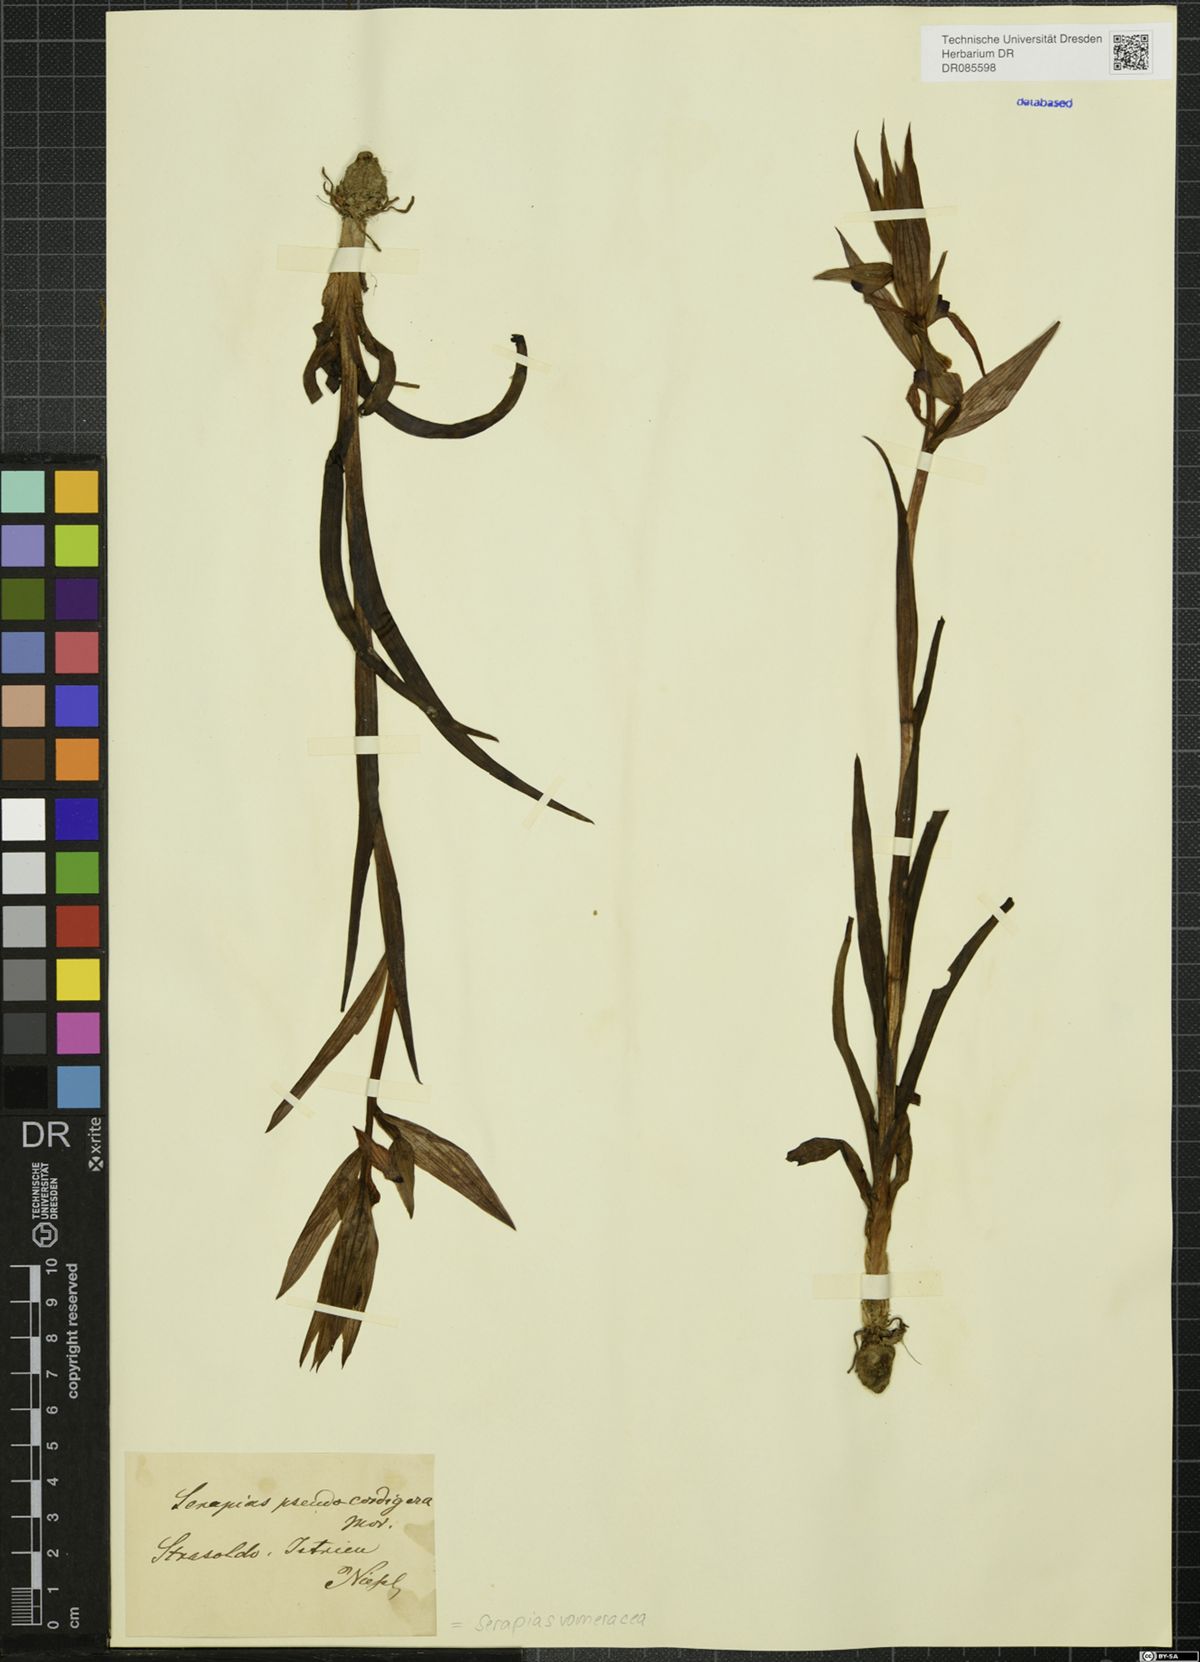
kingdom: Plantae
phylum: Tracheophyta
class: Liliopsida
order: Asparagales
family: Orchidaceae
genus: Serapias
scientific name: Serapias vomeracea
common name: Long-lipped tongue-orchid
